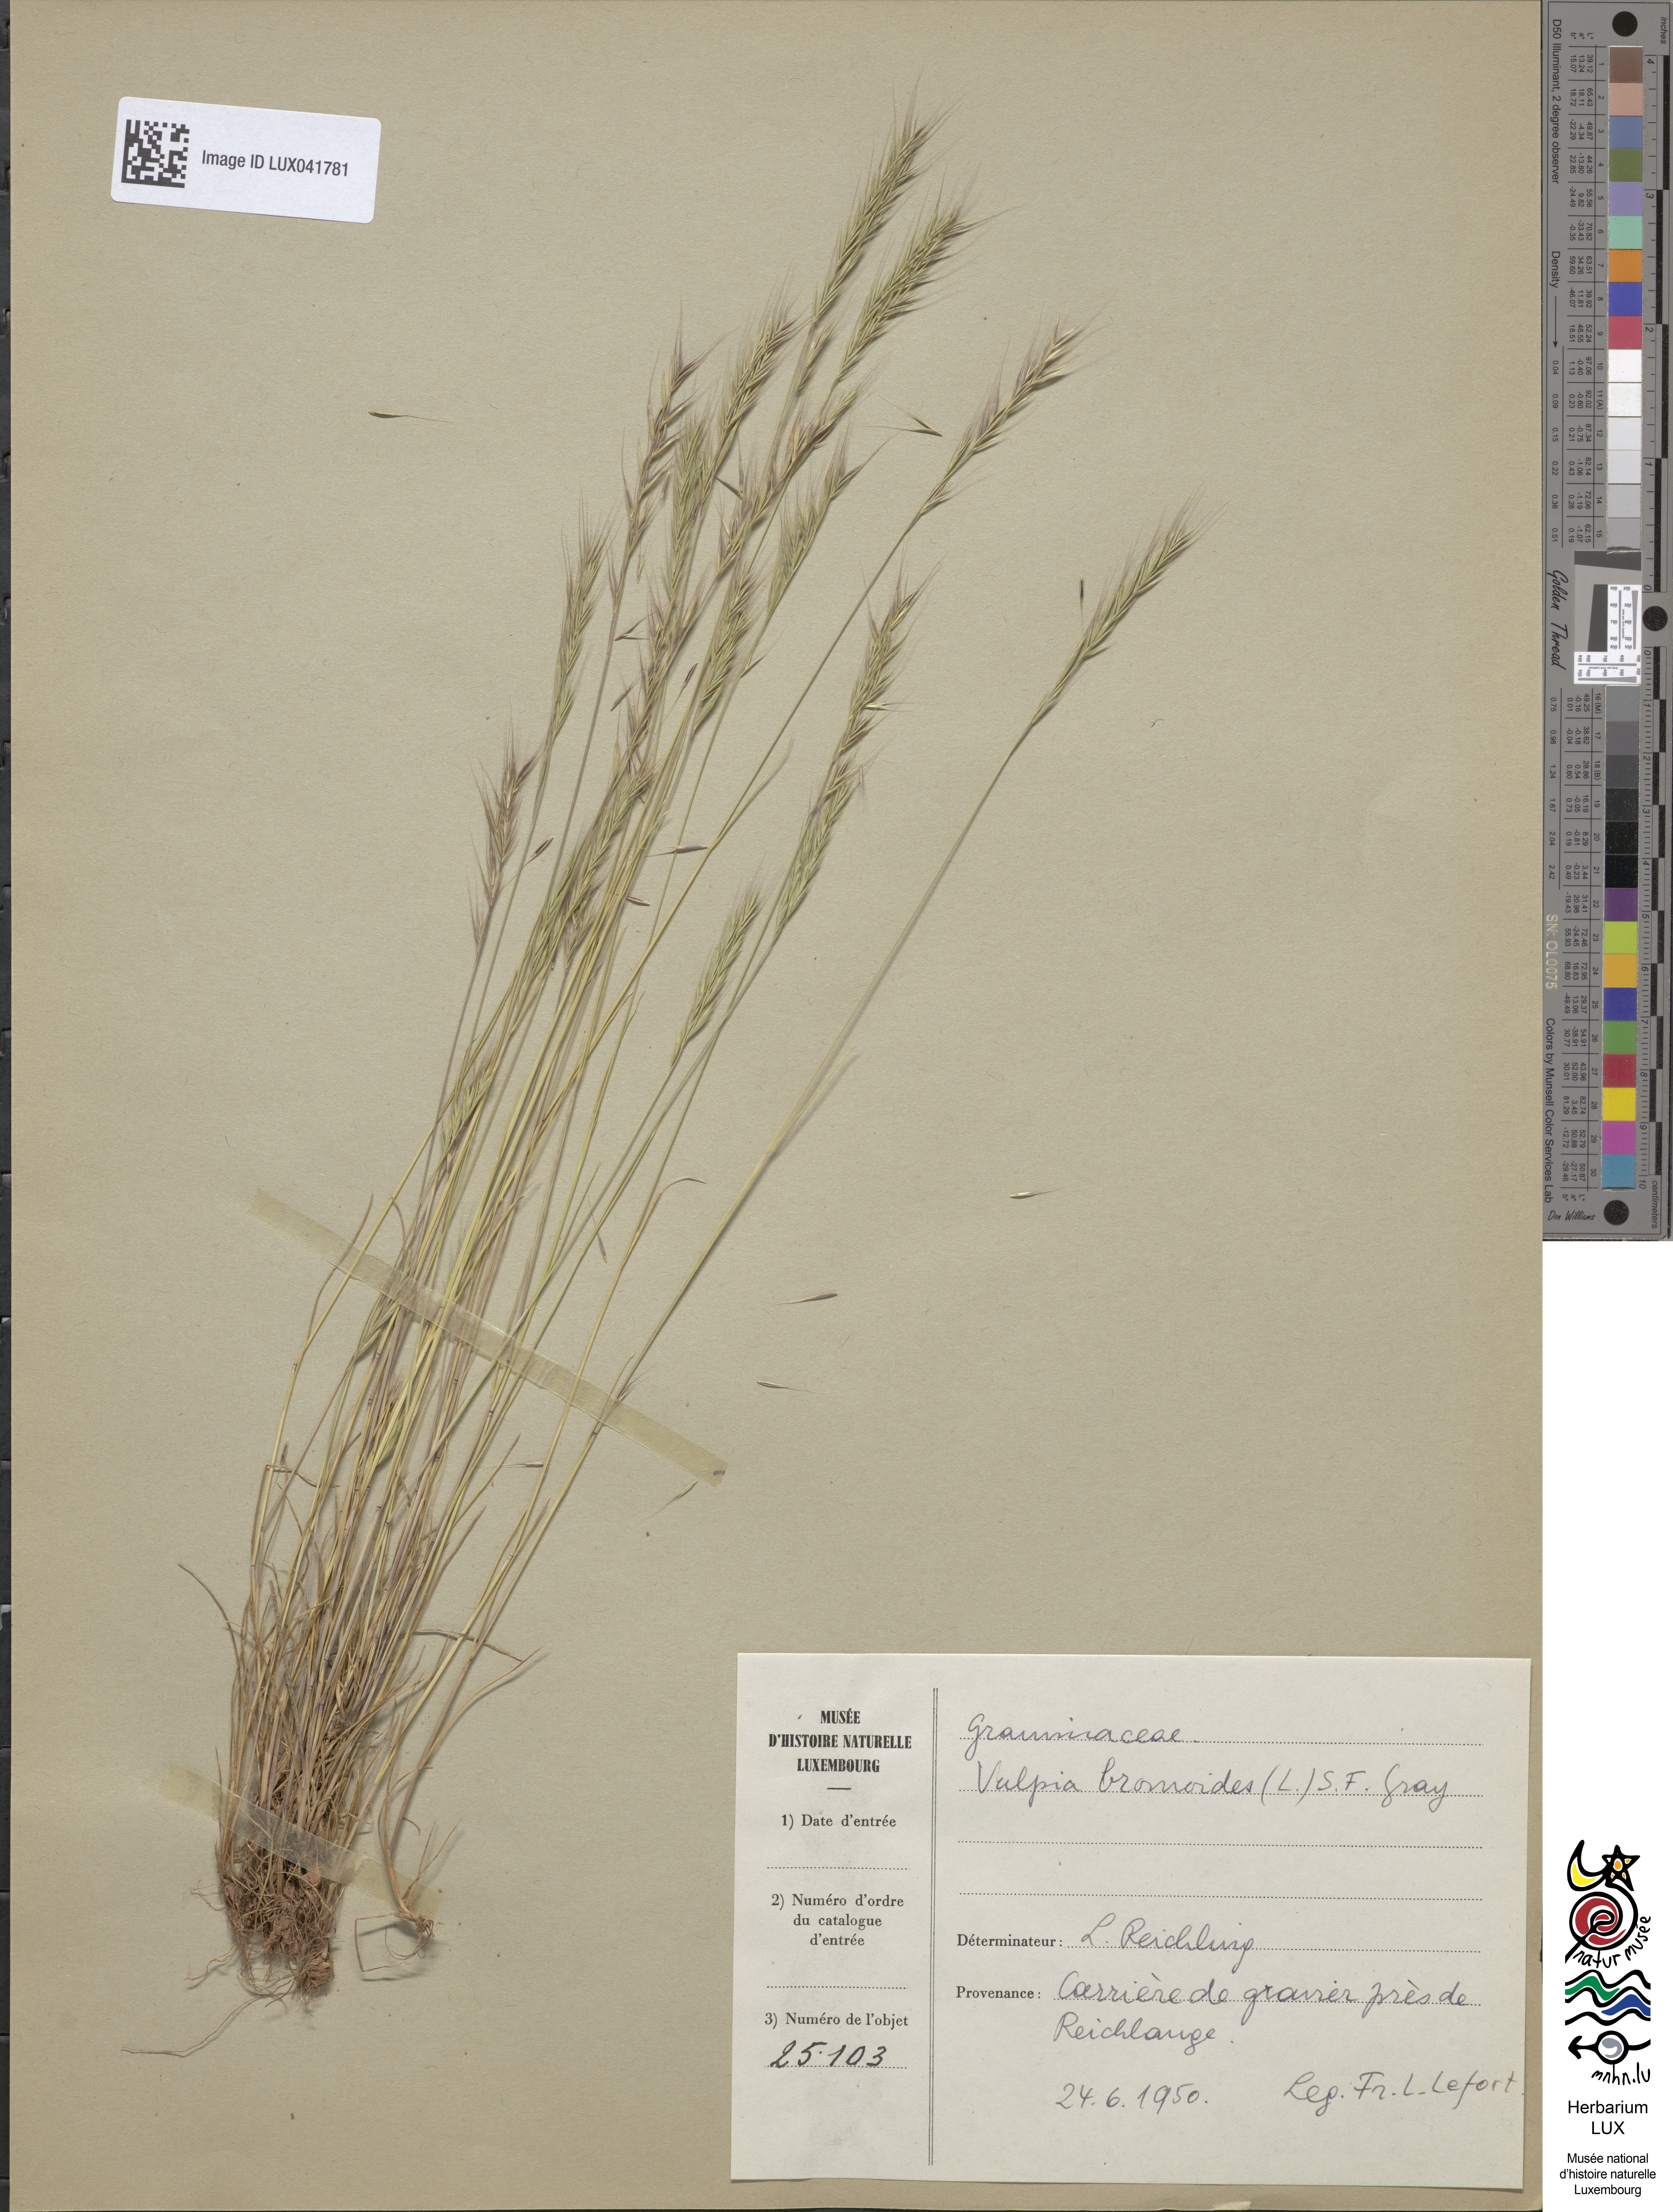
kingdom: Plantae
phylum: Tracheophyta
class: Liliopsida
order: Poales
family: Poaceae
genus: Festuca
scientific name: Festuca bromoides
